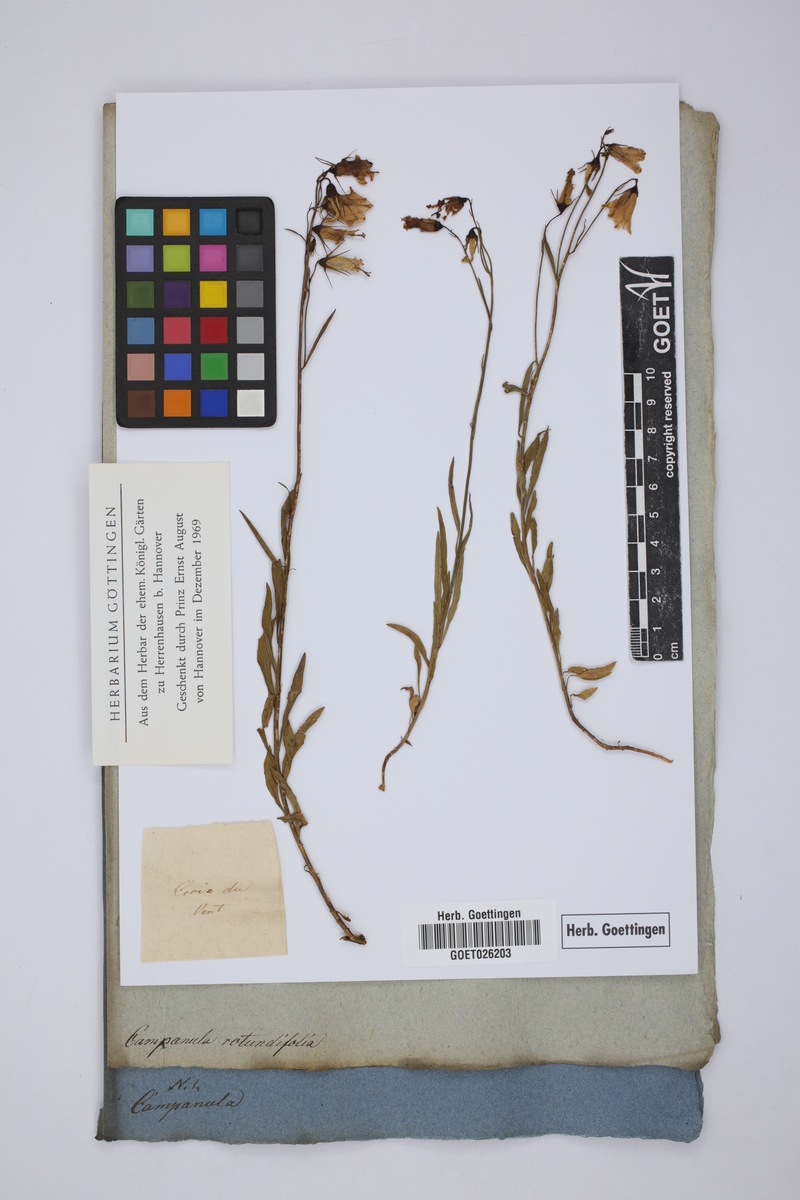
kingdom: Plantae
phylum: Tracheophyta
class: Magnoliopsida
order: Asterales
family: Campanulaceae
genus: Campanula
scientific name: Campanula rotundifolia
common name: Harebell
